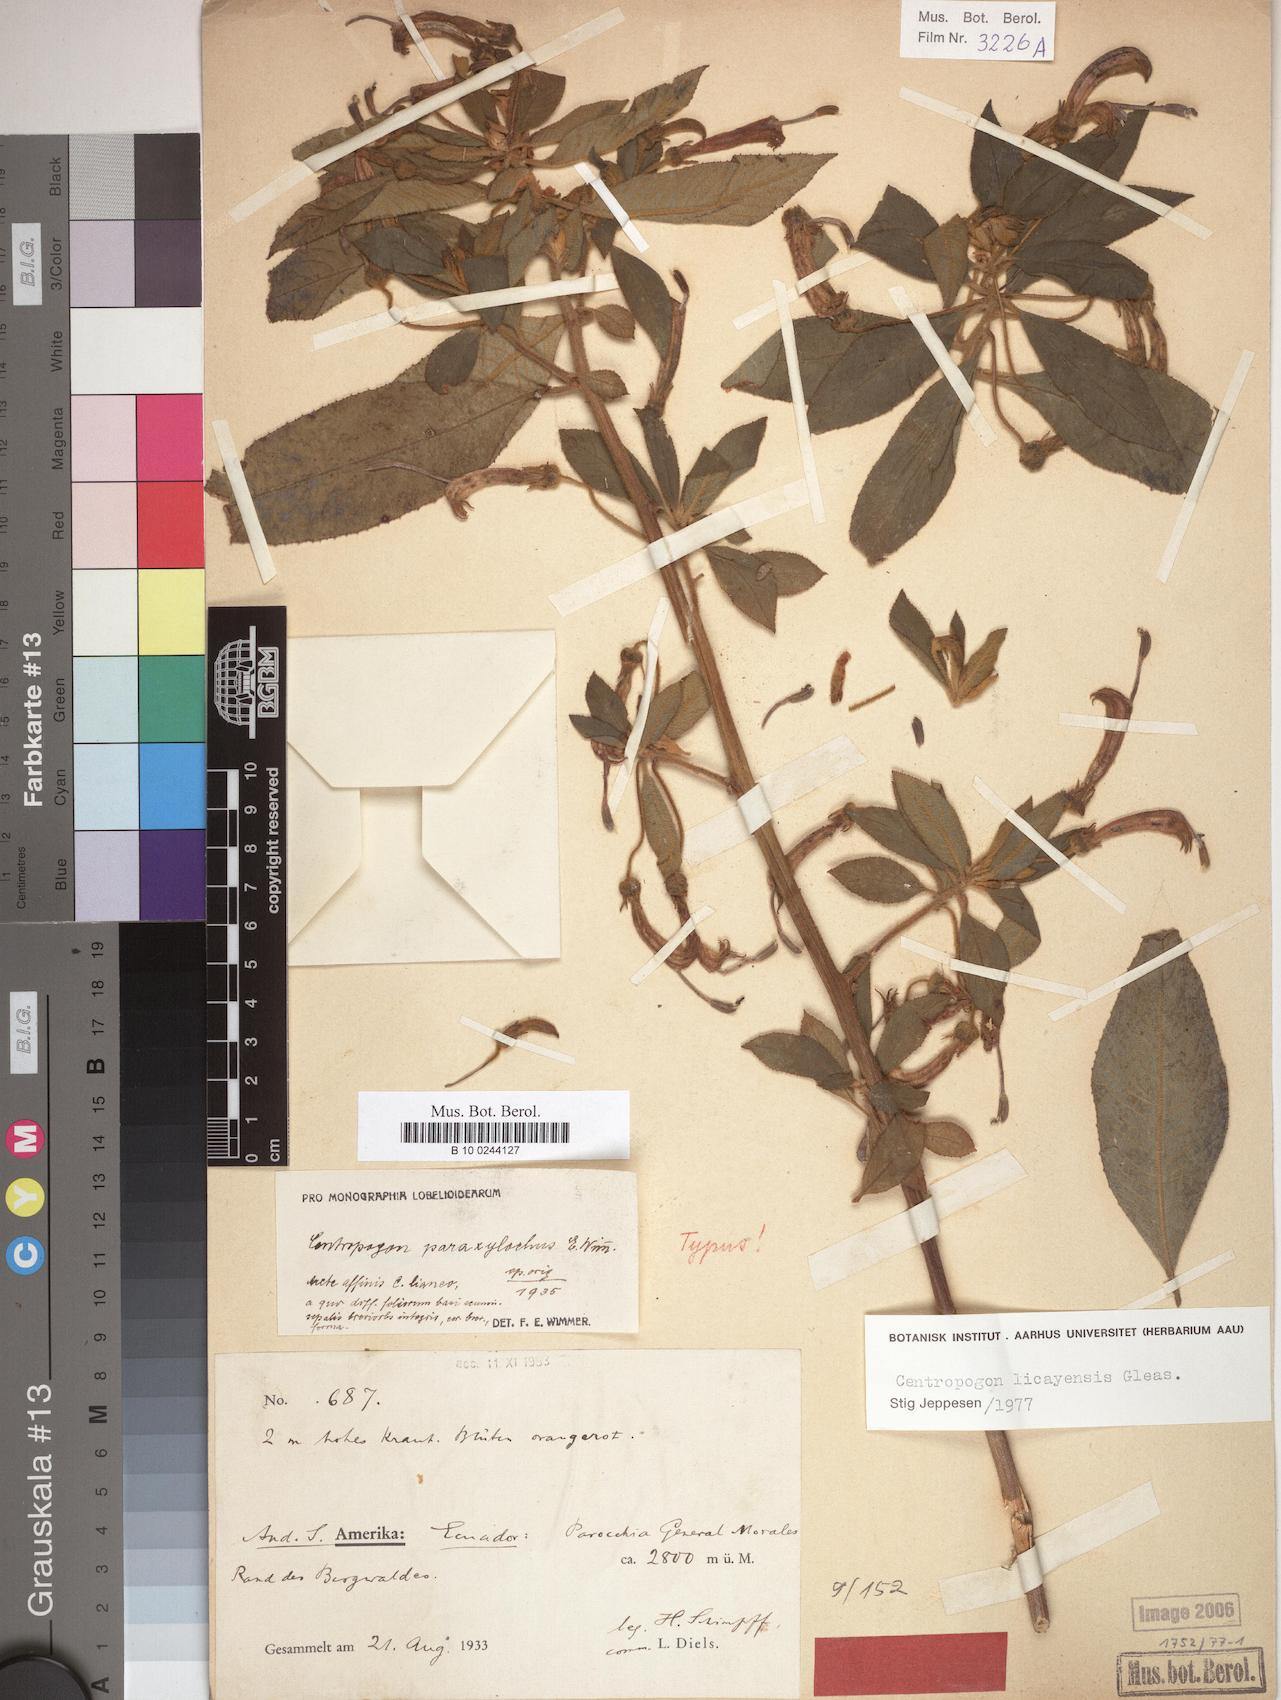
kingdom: Plantae
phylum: Tracheophyta
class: Magnoliopsida
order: Asterales
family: Campanulaceae
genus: Centropogon
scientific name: Centropogon licayensis
